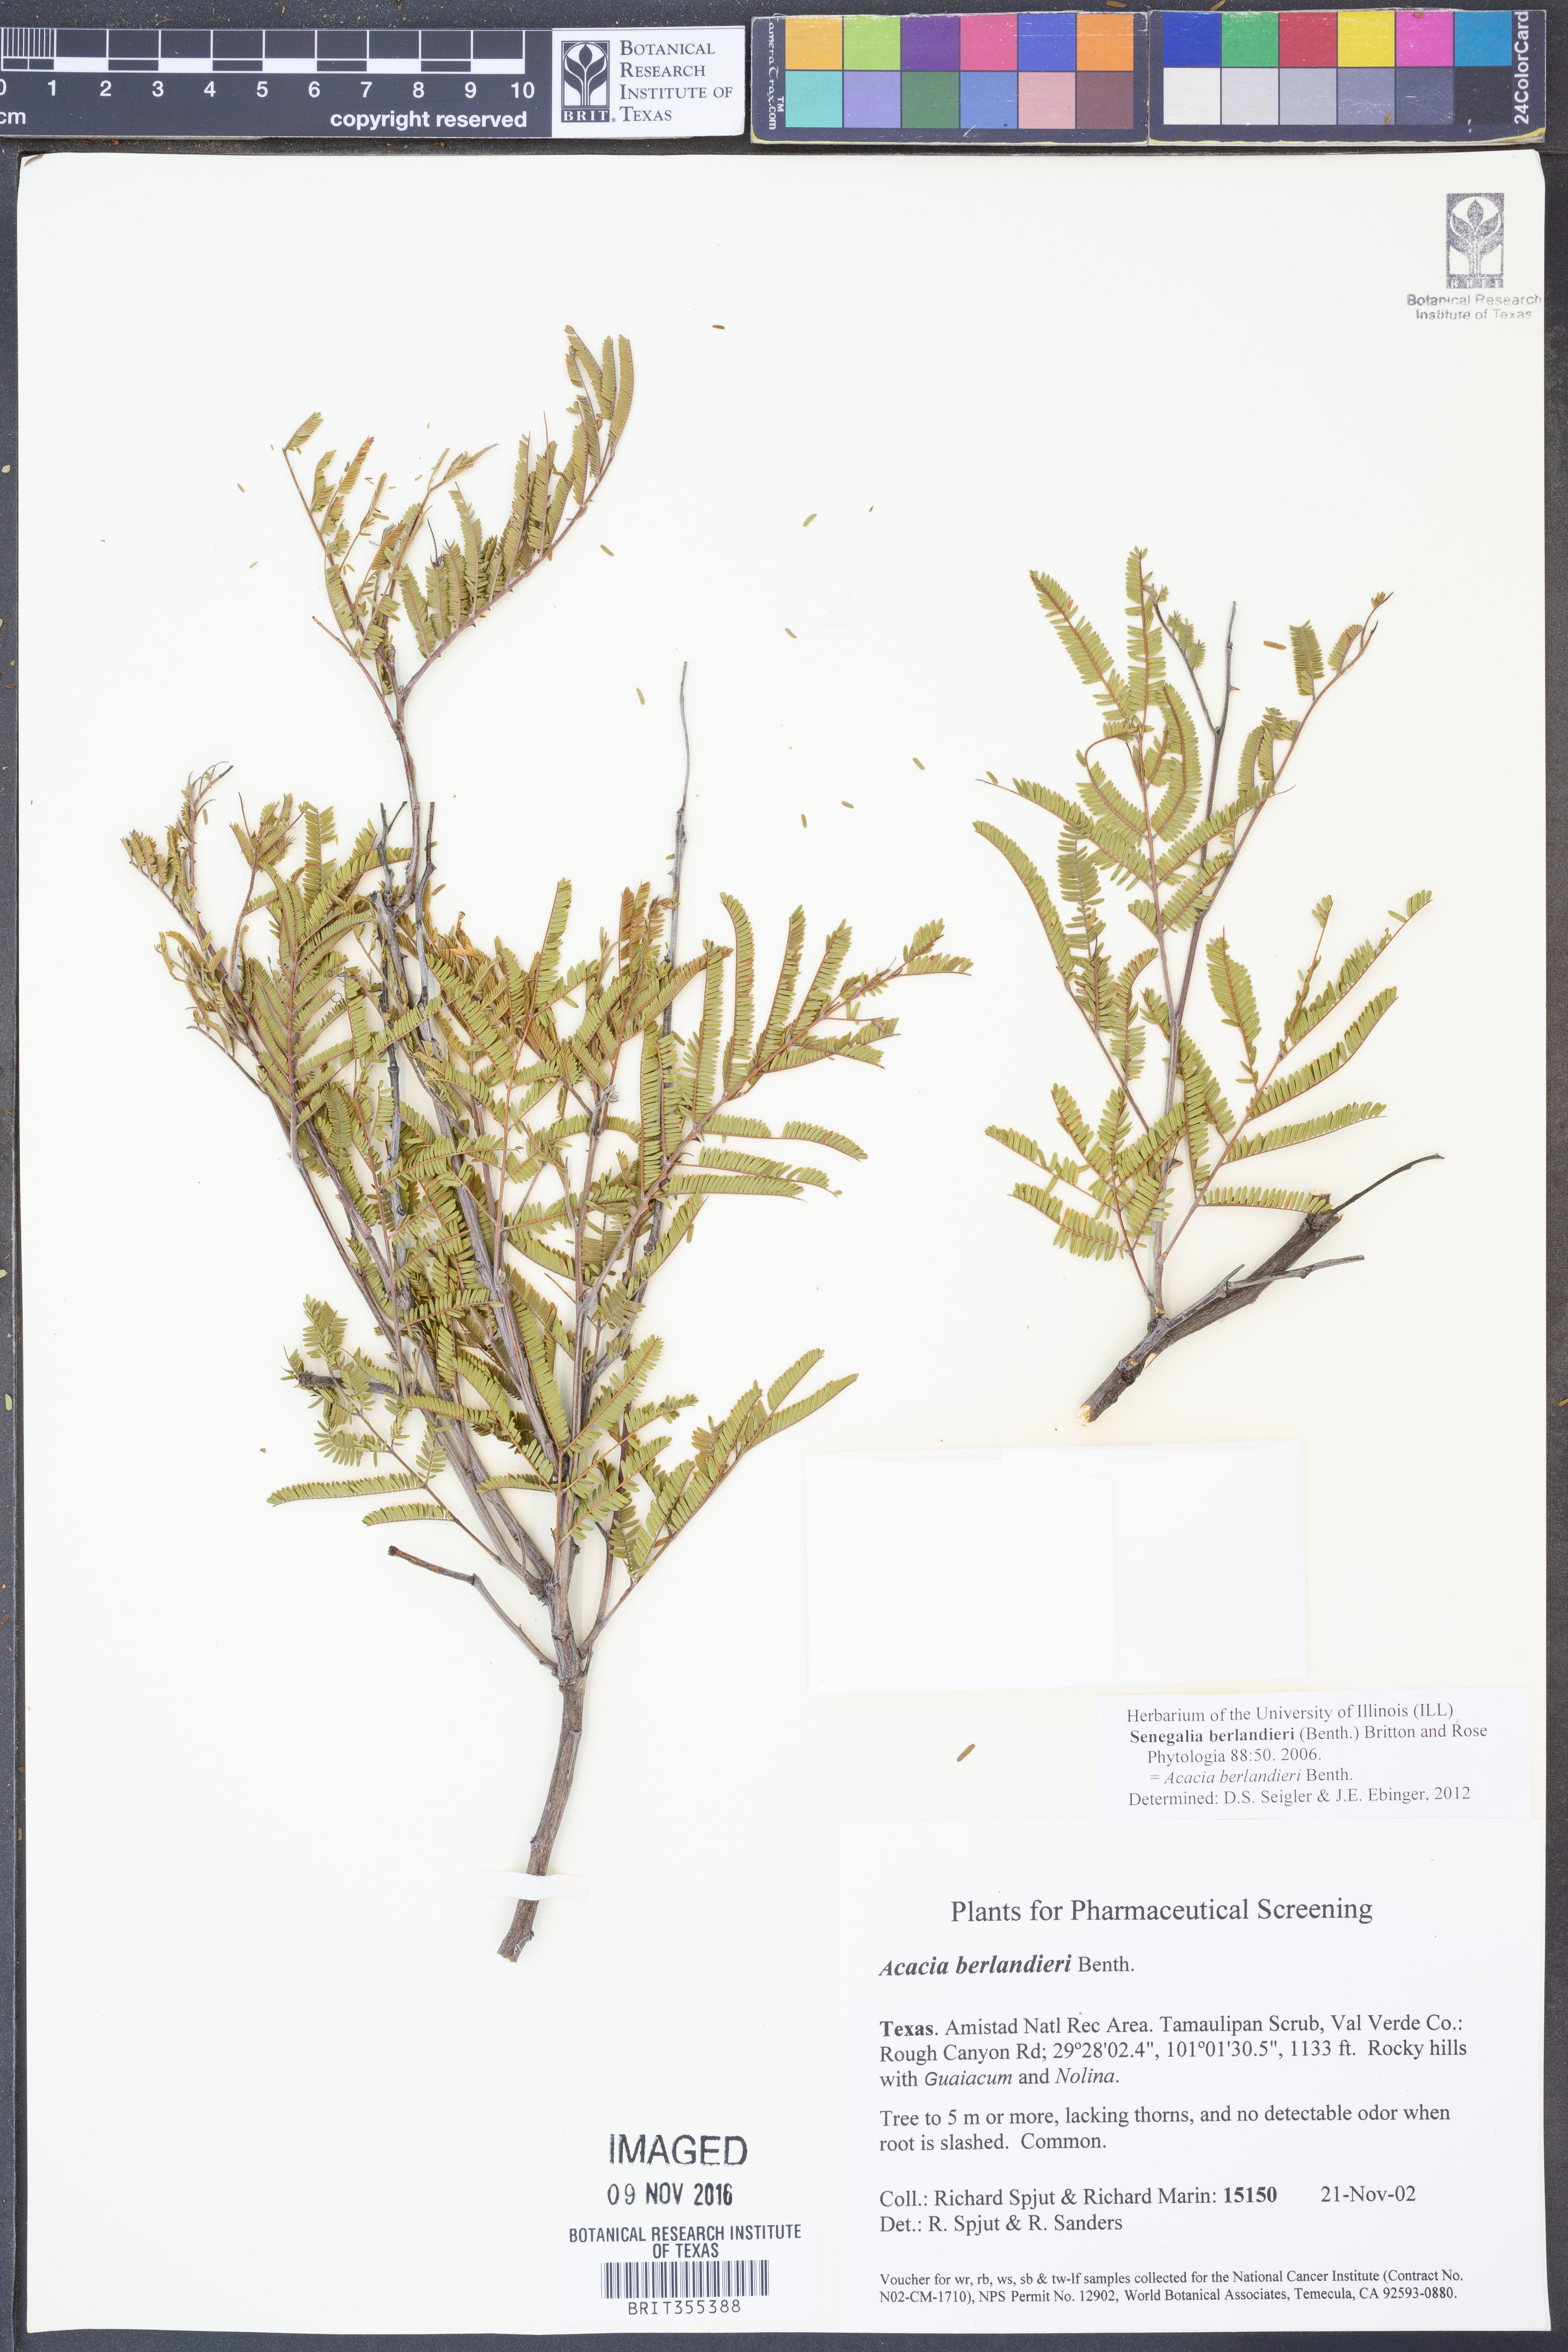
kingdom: Plantae
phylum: Tracheophyta
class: Magnoliopsida
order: Fabales
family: Fabaceae
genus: Senegalia
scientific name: Senegalia berlandieri
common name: Berlandier acacia
